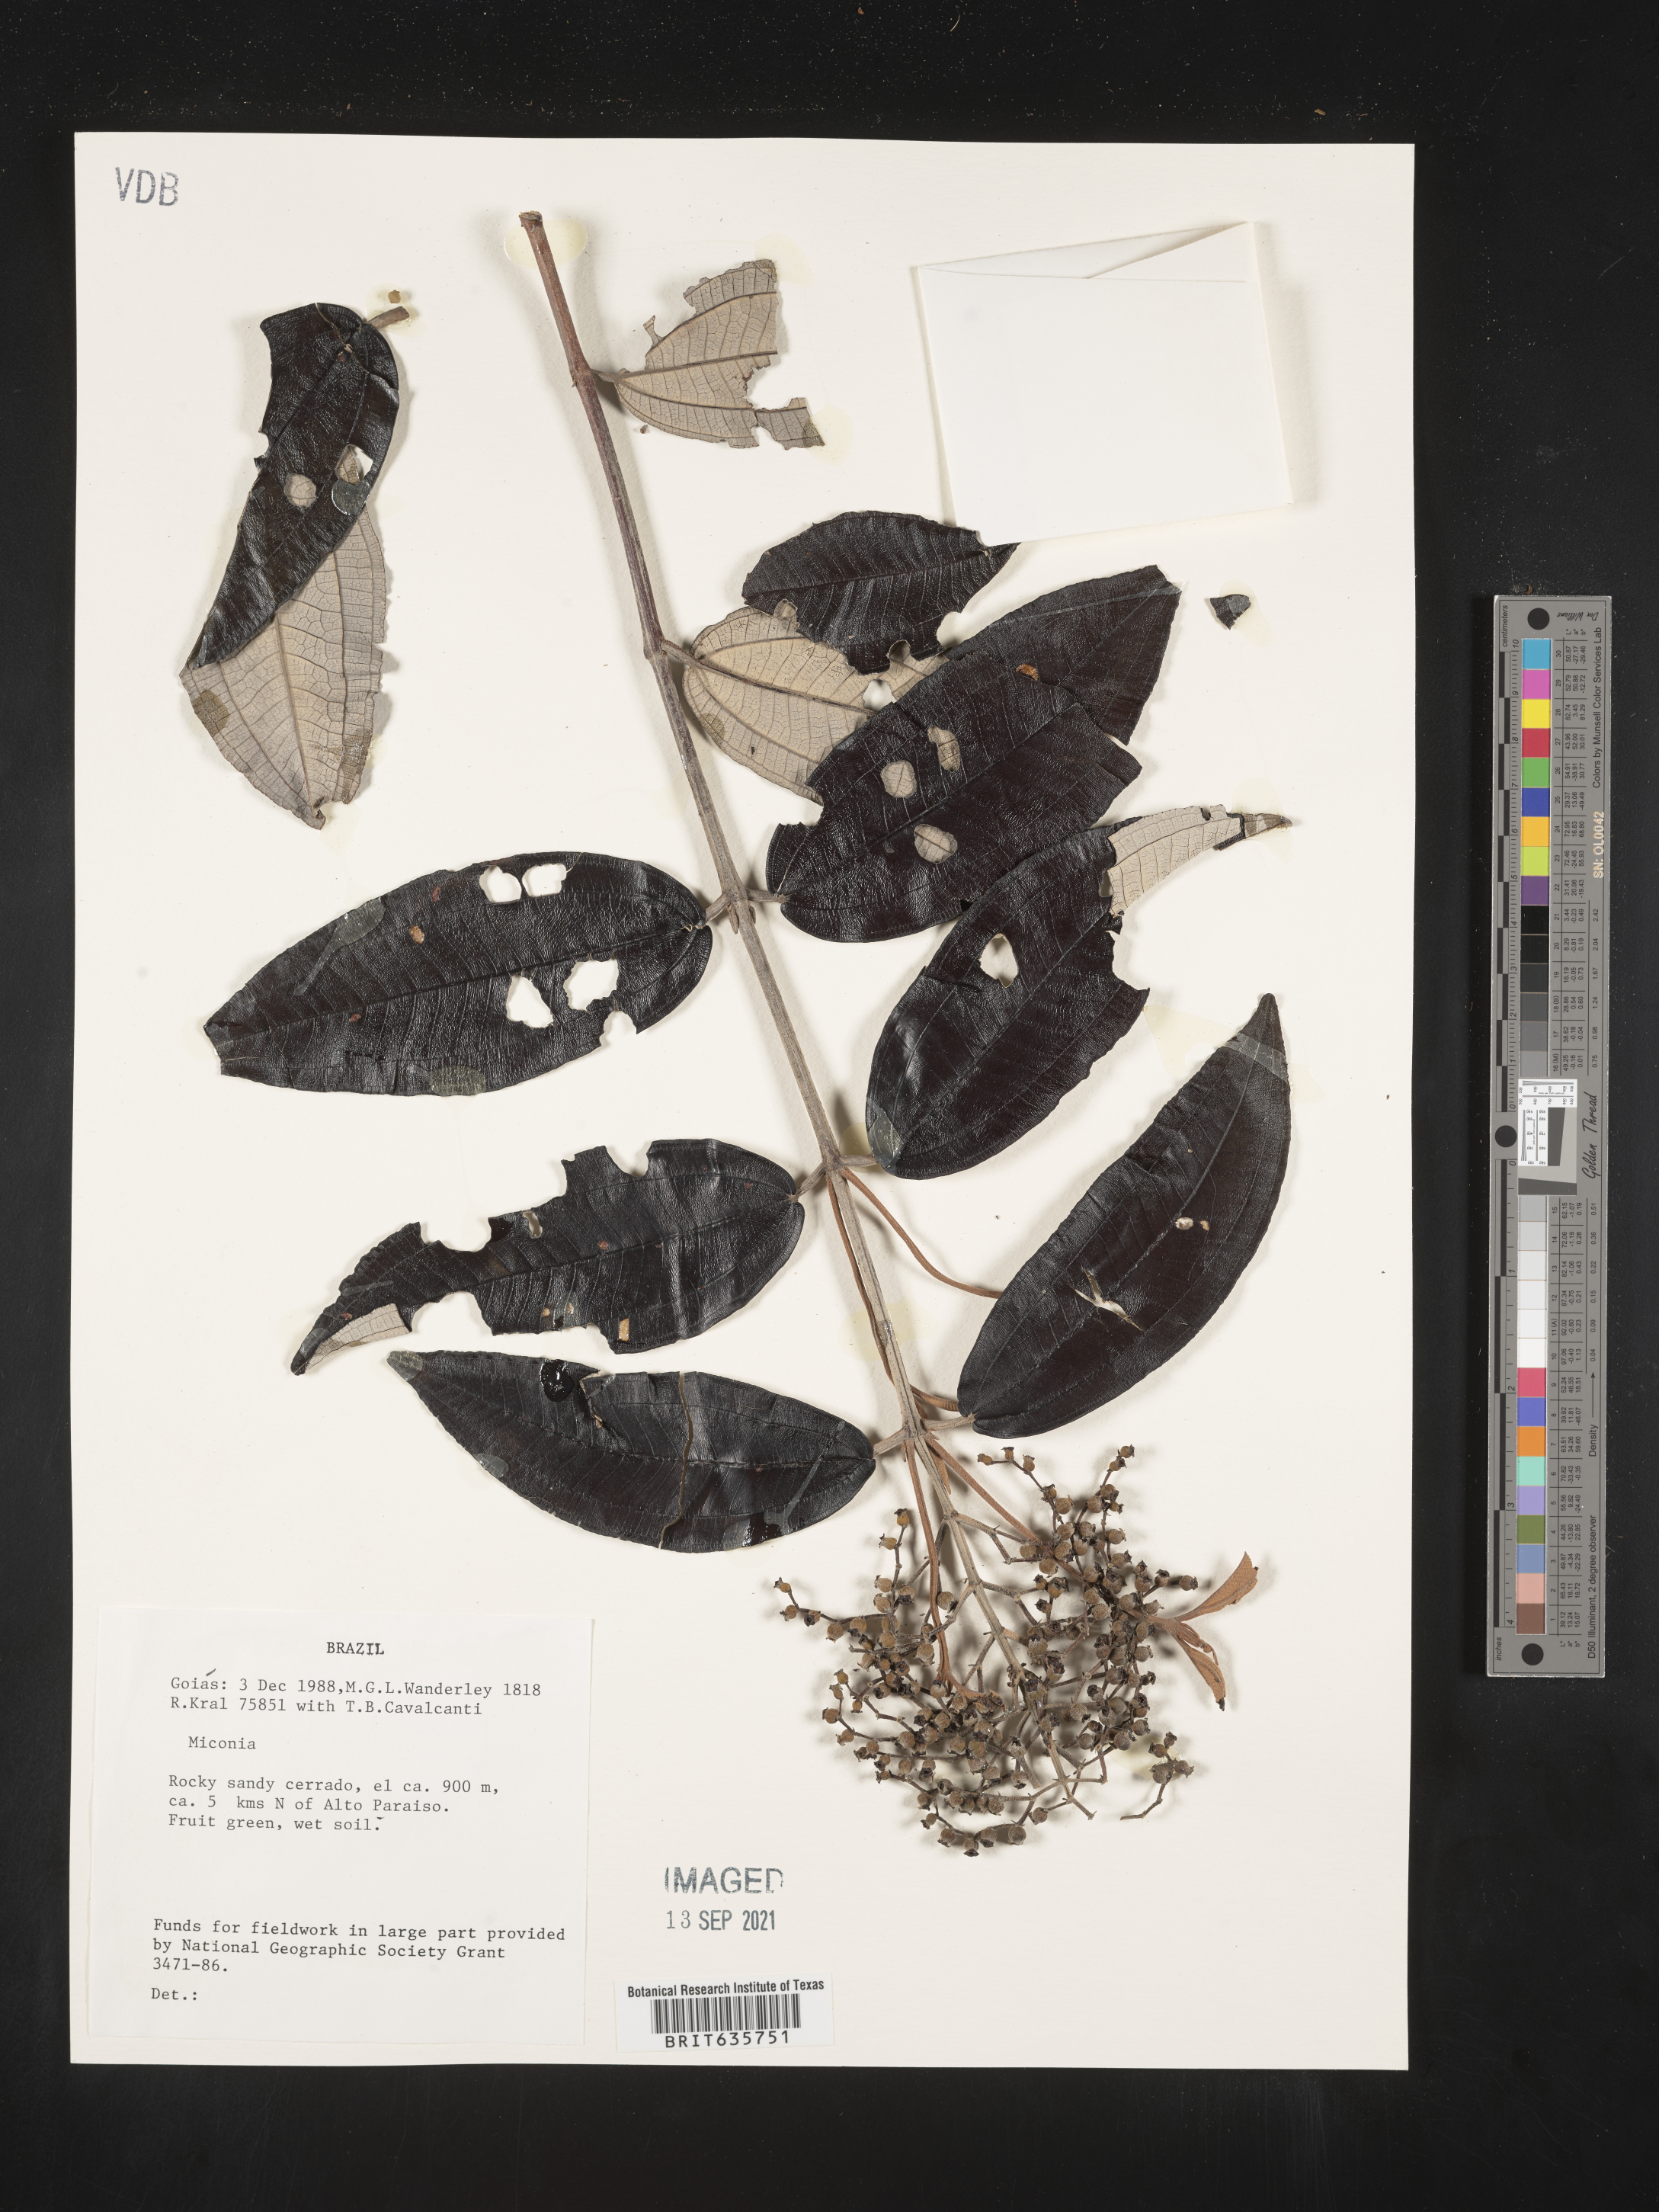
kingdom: Plantae
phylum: Tracheophyta
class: Magnoliopsida
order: Myrtales
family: Melastomataceae
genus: Miconia
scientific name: Miconia
